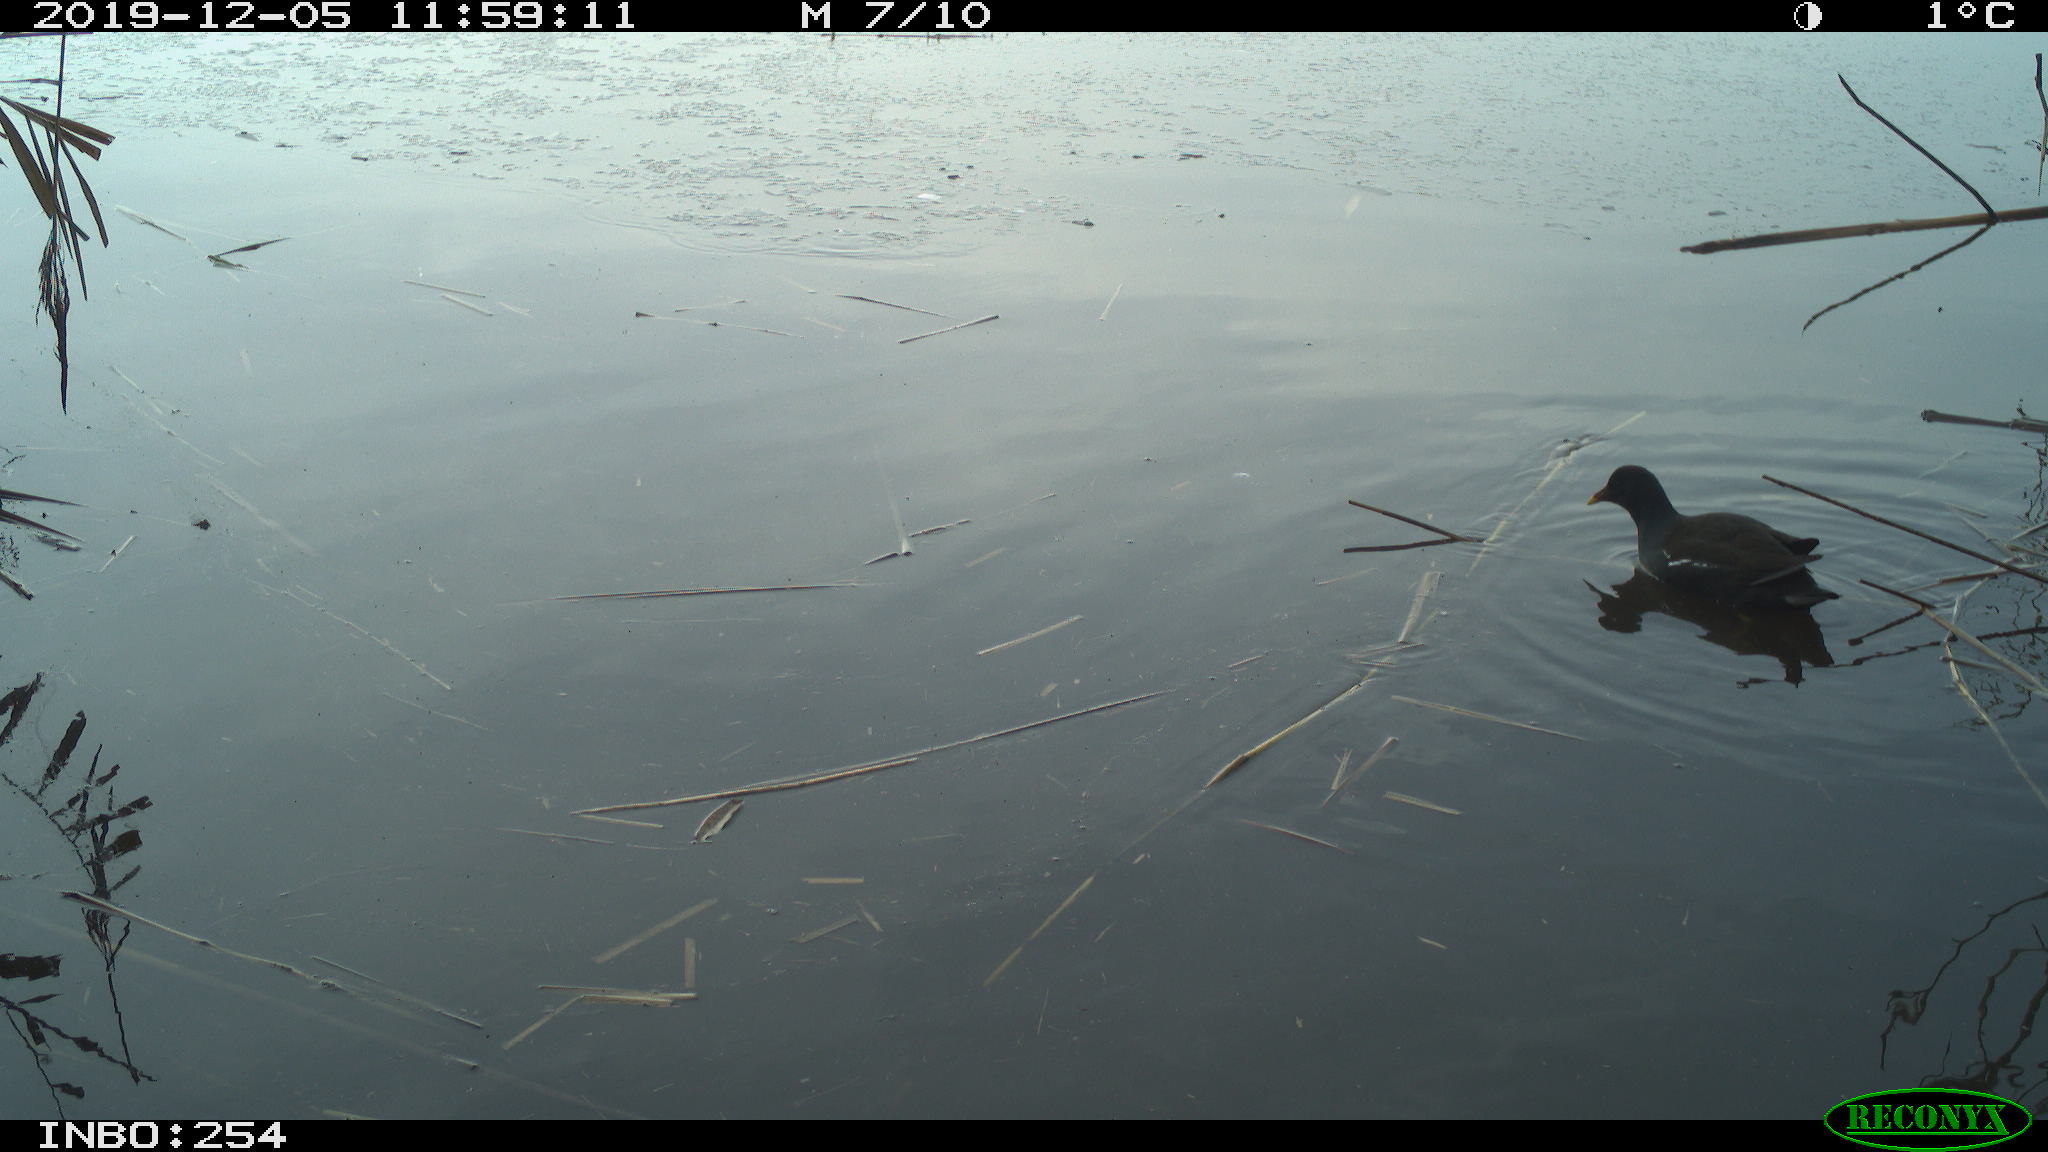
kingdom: Animalia
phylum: Chordata
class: Aves
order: Gruiformes
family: Rallidae
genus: Gallinula
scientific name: Gallinula chloropus
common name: Common moorhen
